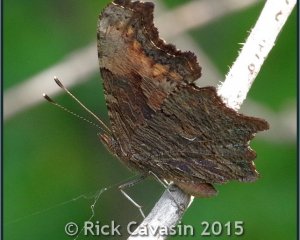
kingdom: Animalia
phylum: Arthropoda
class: Insecta
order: Lepidoptera
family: Nymphalidae
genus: Polygonia
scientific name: Polygonia progne
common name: Gray Comma
